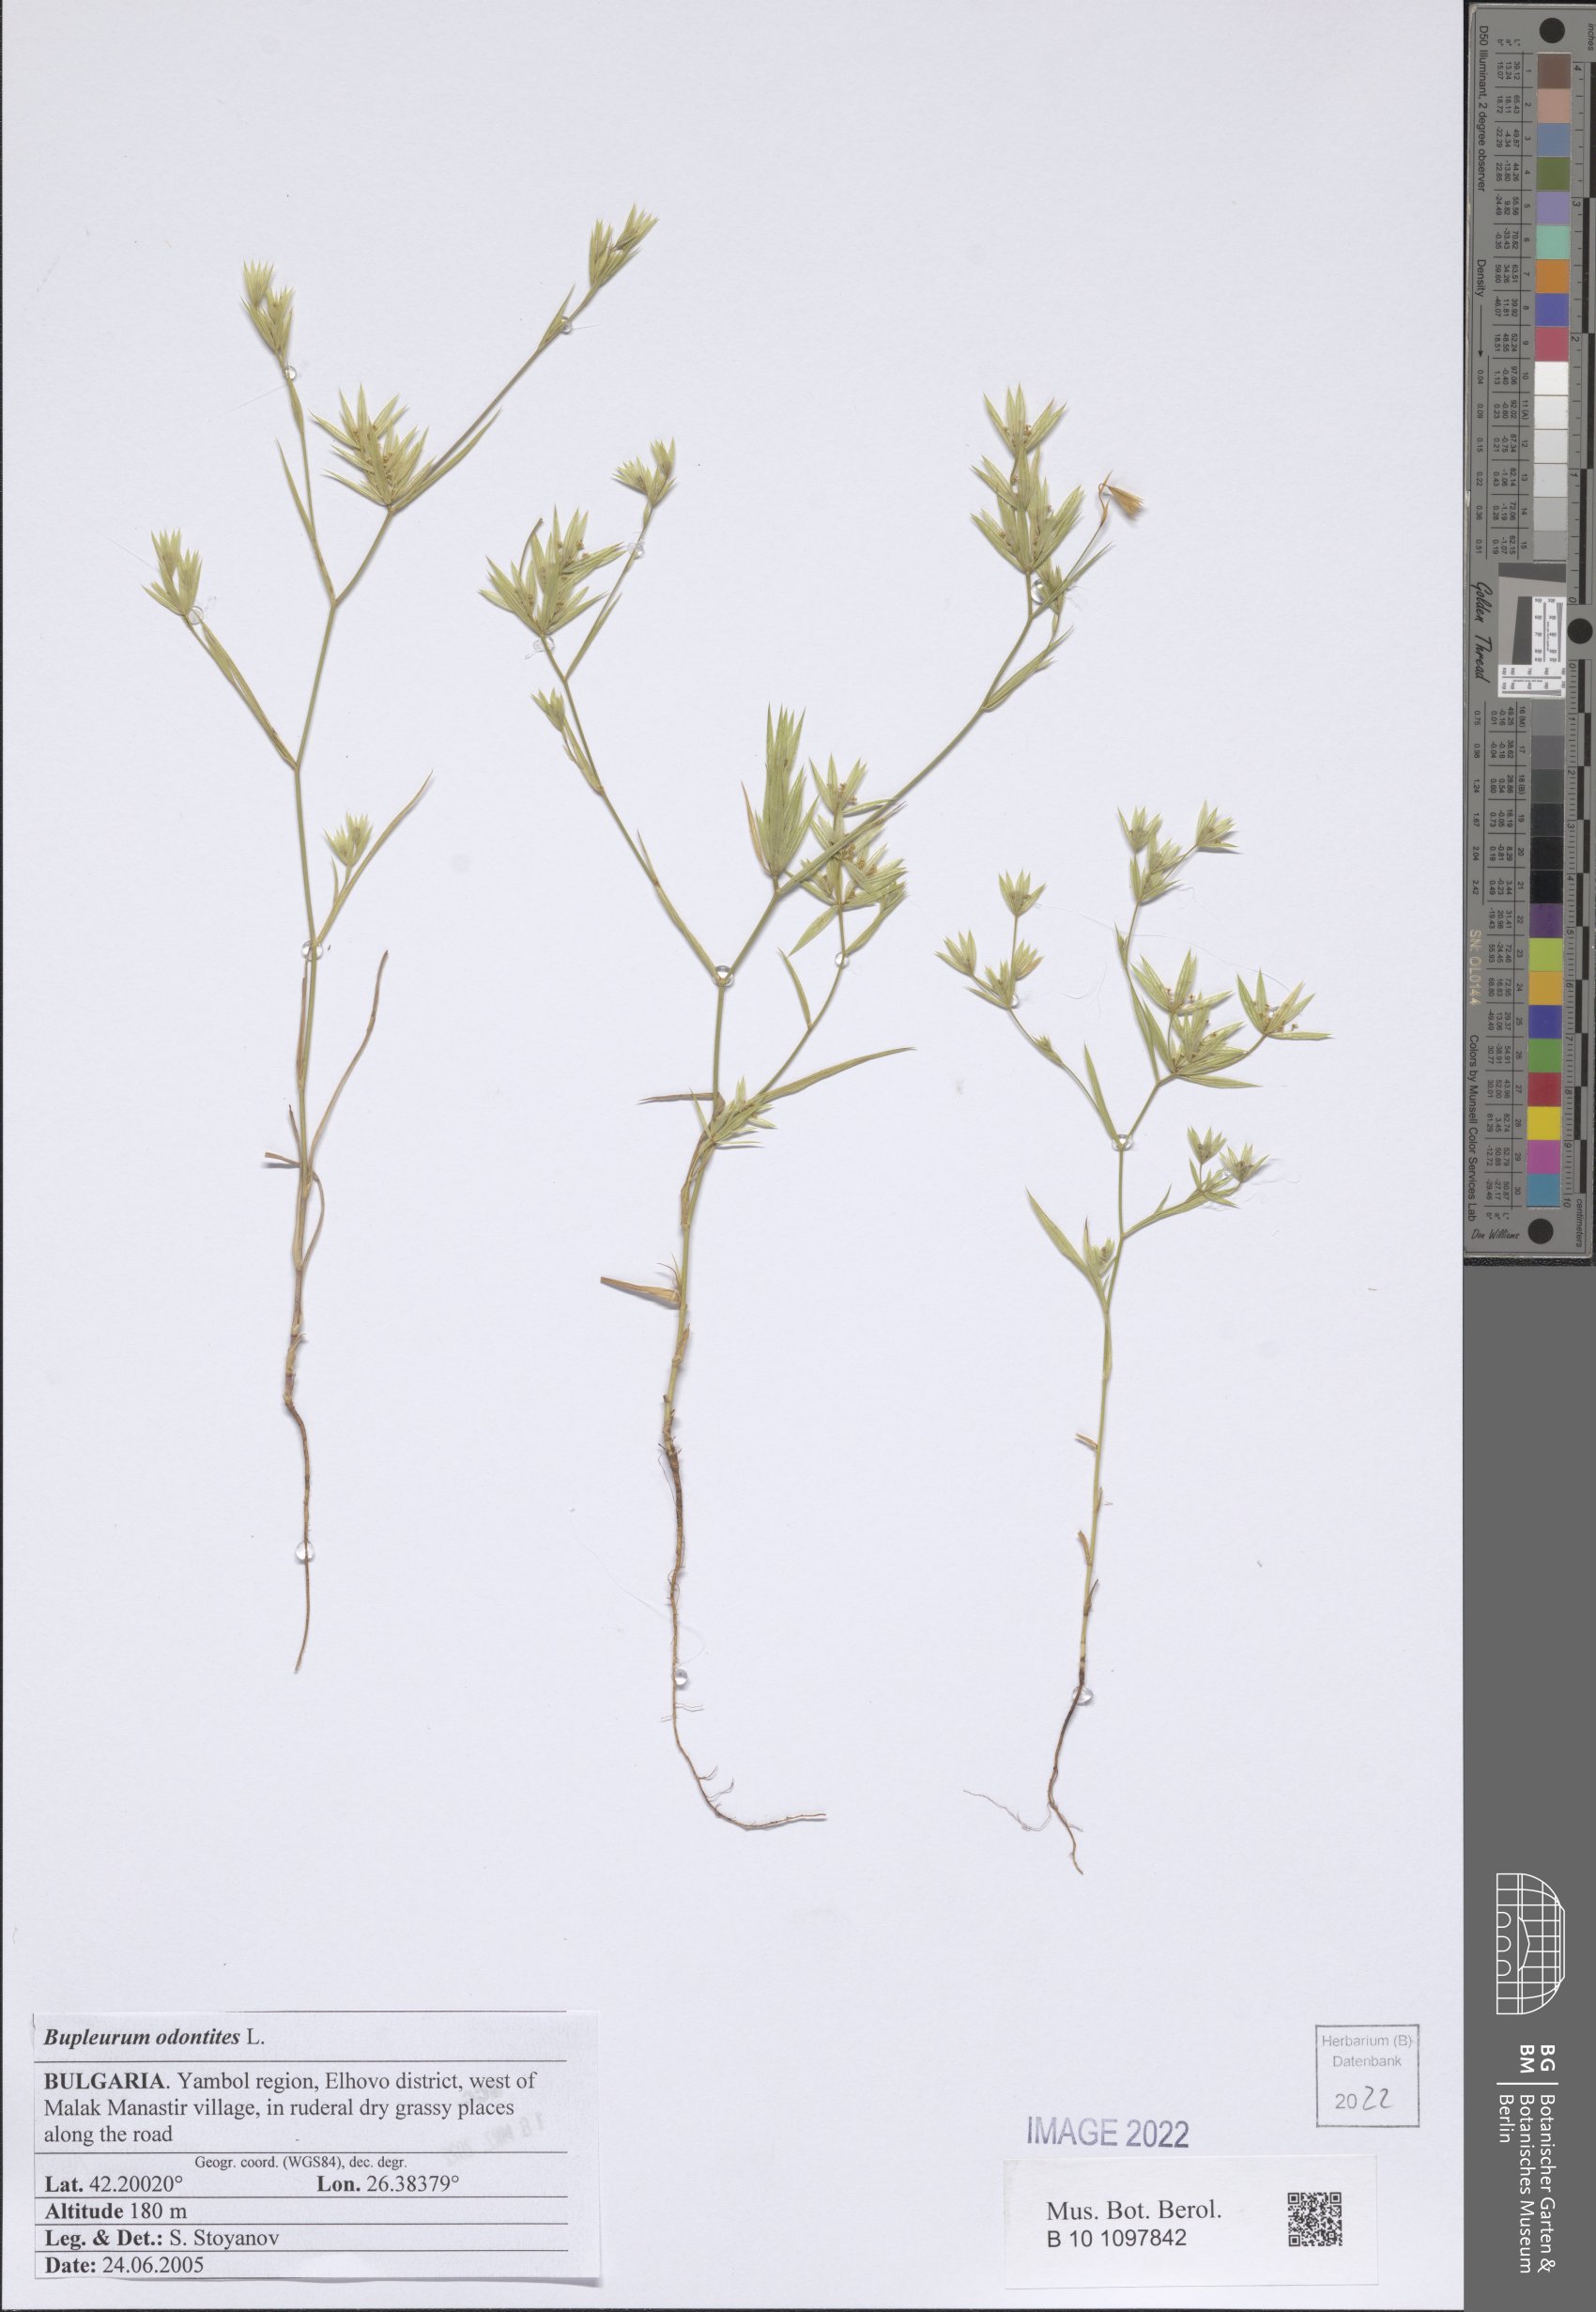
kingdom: Plantae
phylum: Tracheophyta
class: Magnoliopsida
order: Apiales
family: Apiaceae
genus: Bupleurum
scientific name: Bupleurum odontites
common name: Narrowleaf thorow wax
